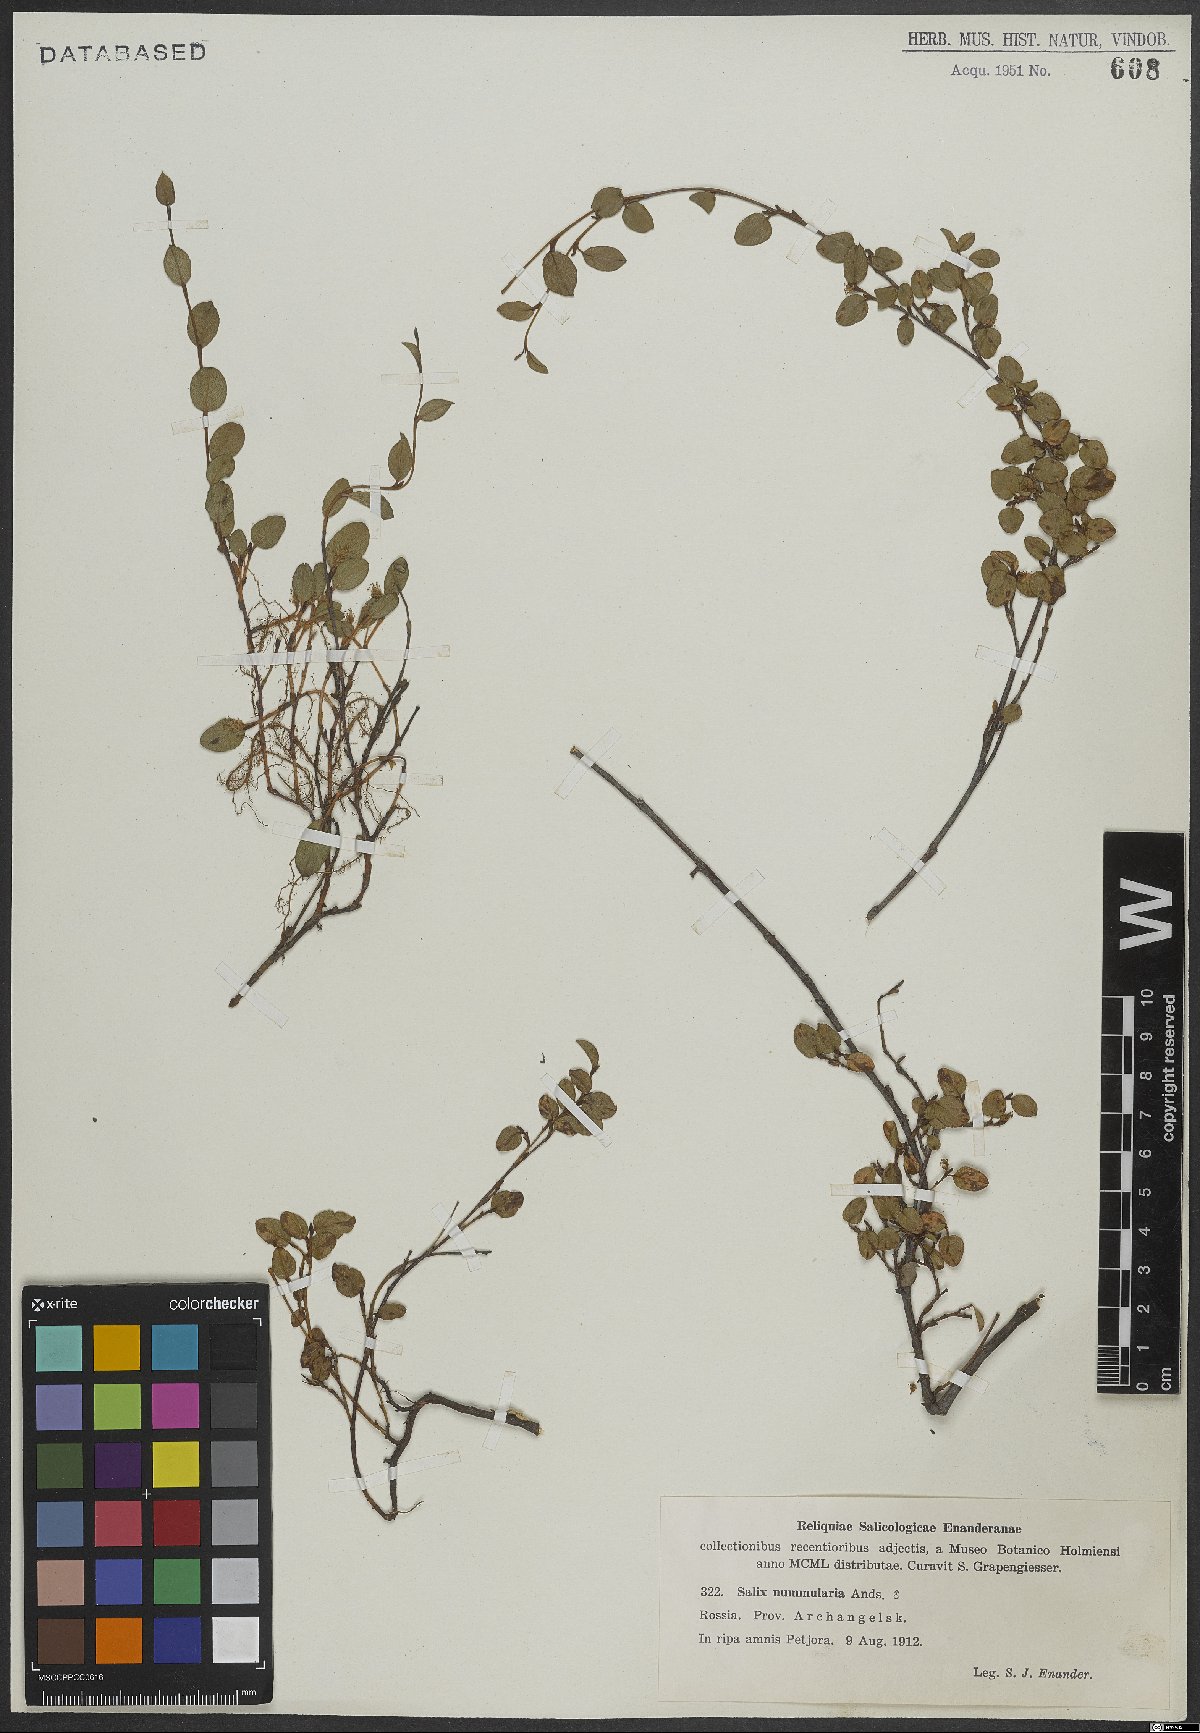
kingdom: Plantae
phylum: Tracheophyta
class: Magnoliopsida
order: Malpighiales
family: Salicaceae
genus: Salix
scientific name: Salix nummularia
